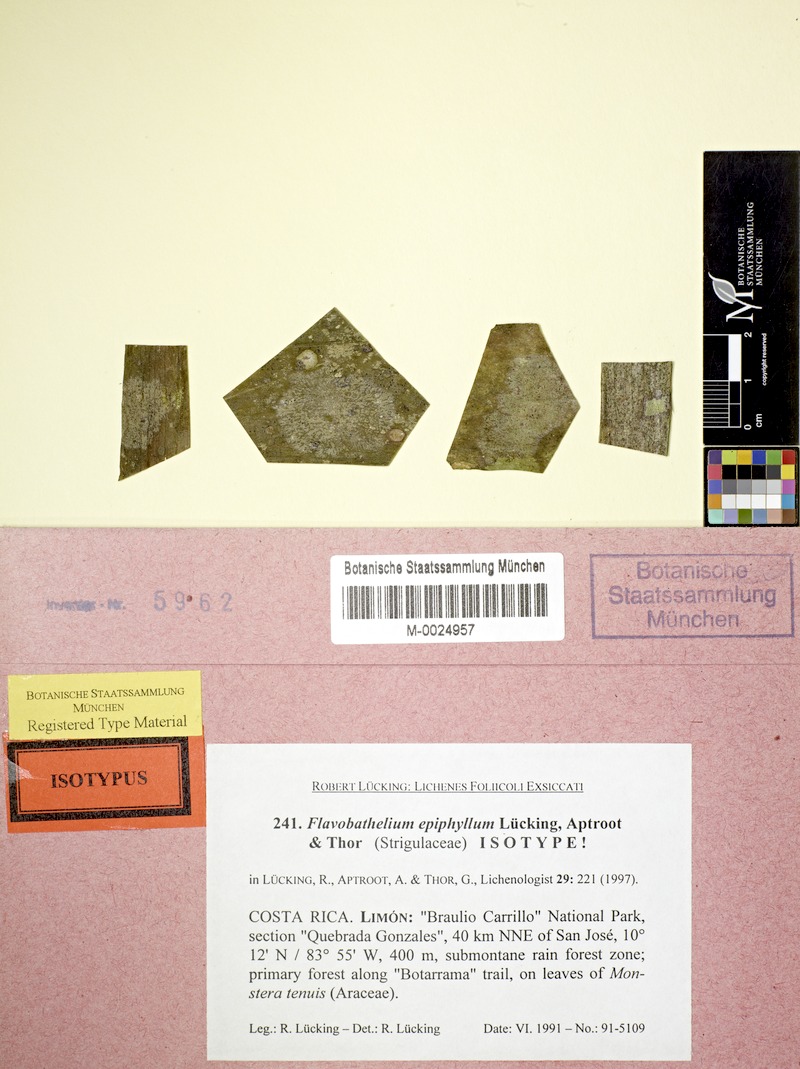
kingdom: Fungi
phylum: Ascomycota
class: Dothideomycetes
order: Strigulales
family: Strigulaceae
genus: Flavobathelium
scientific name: Flavobathelium epiphyllum
